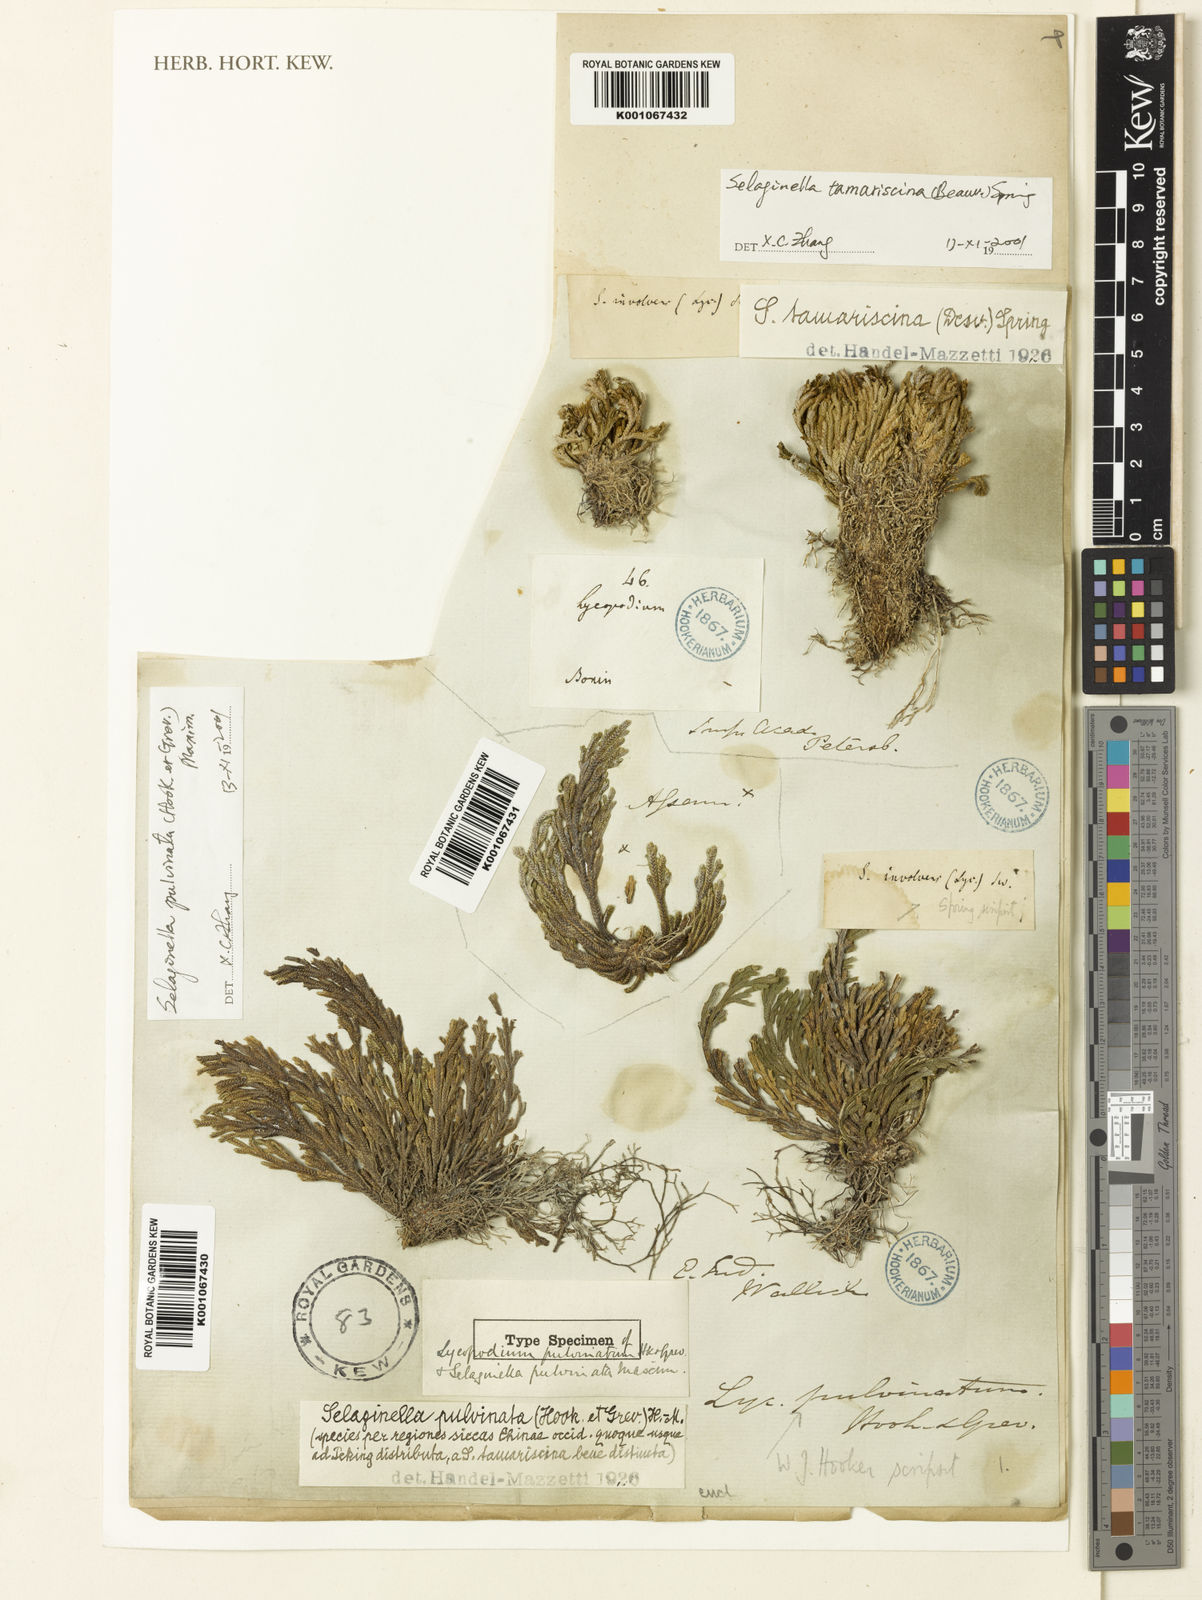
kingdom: Plantae
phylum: Tracheophyta
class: Lycopodiopsida
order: Selaginellales
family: Selaginellaceae
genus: Selaginella
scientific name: Selaginella tamariscina
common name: Little-club-moss
